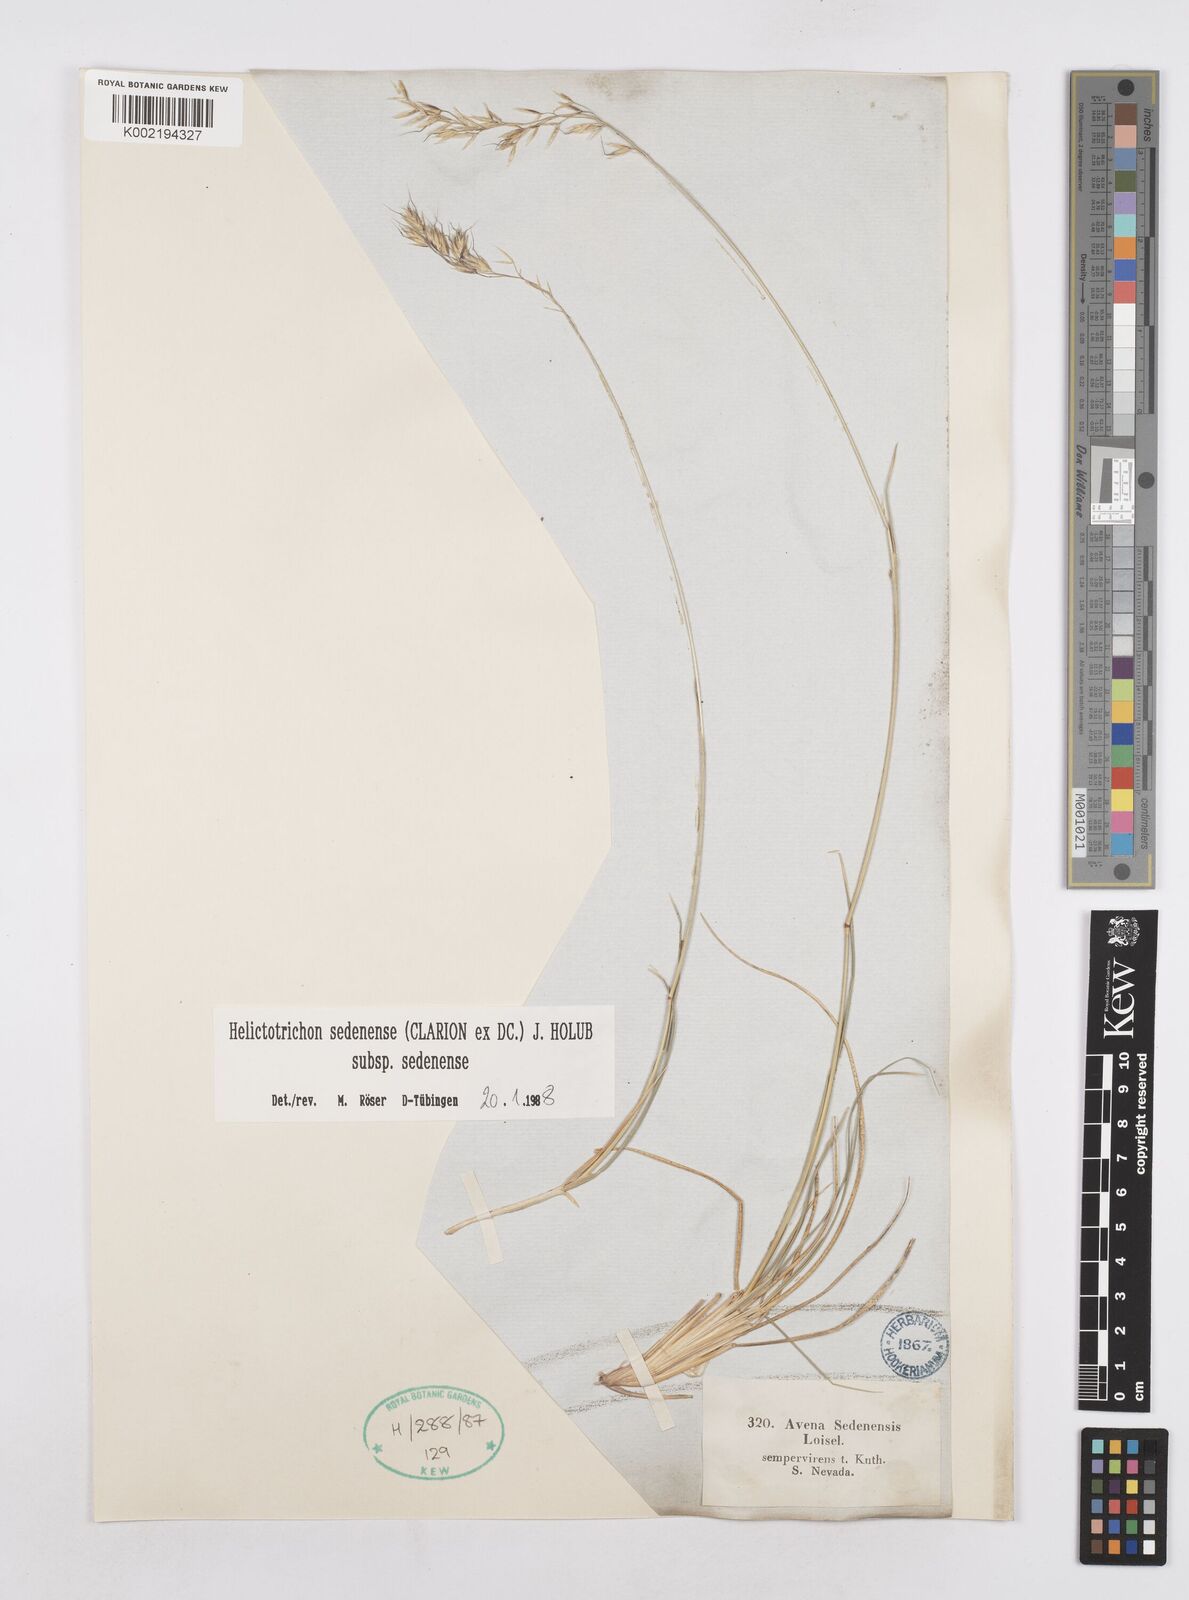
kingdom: Plantae
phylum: Tracheophyta
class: Liliopsida
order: Poales
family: Poaceae
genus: Helictotrichon
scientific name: Helictotrichon sedenense
